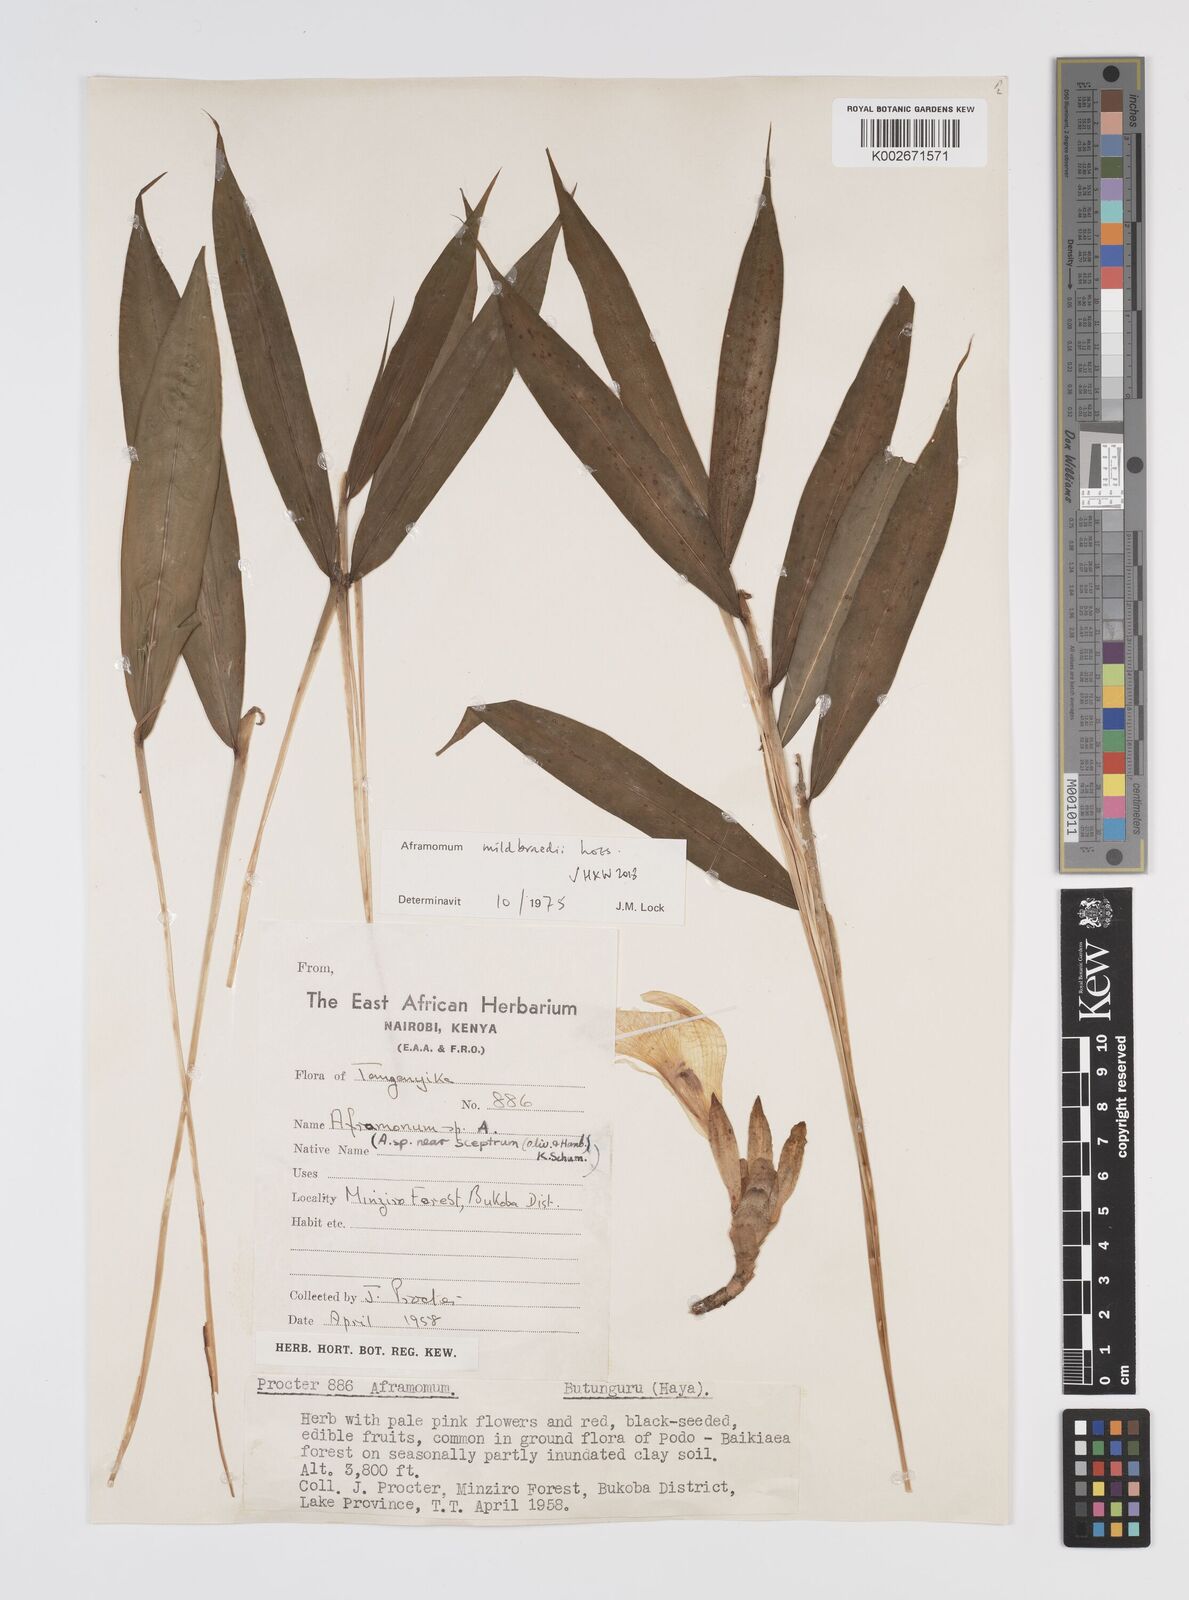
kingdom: Plantae
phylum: Tracheophyta
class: Liliopsida
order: Zingiberales
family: Zingiberaceae
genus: Aframomum
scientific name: Aframomum mildbraedii
